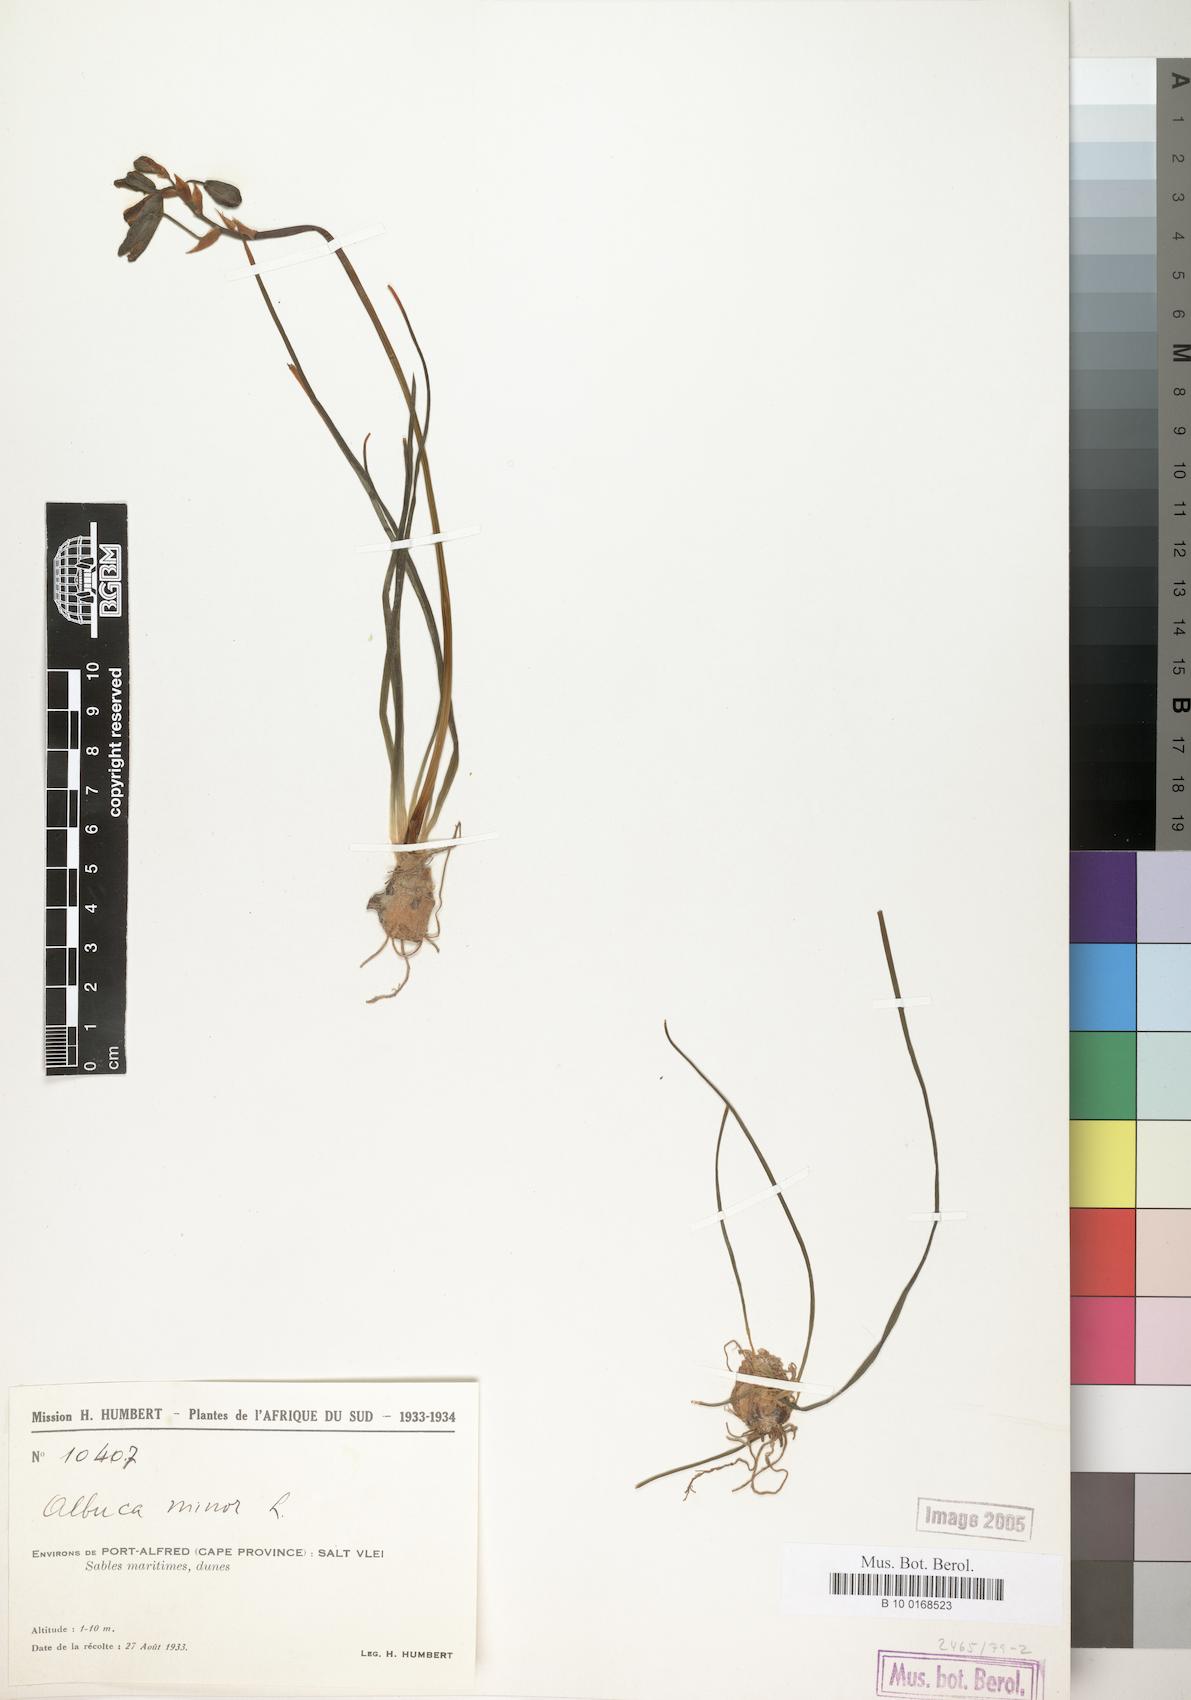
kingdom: Plantae
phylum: Tracheophyta
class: Liliopsida
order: Asparagales
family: Asparagaceae
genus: Albuca
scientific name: Albuca canadensis
